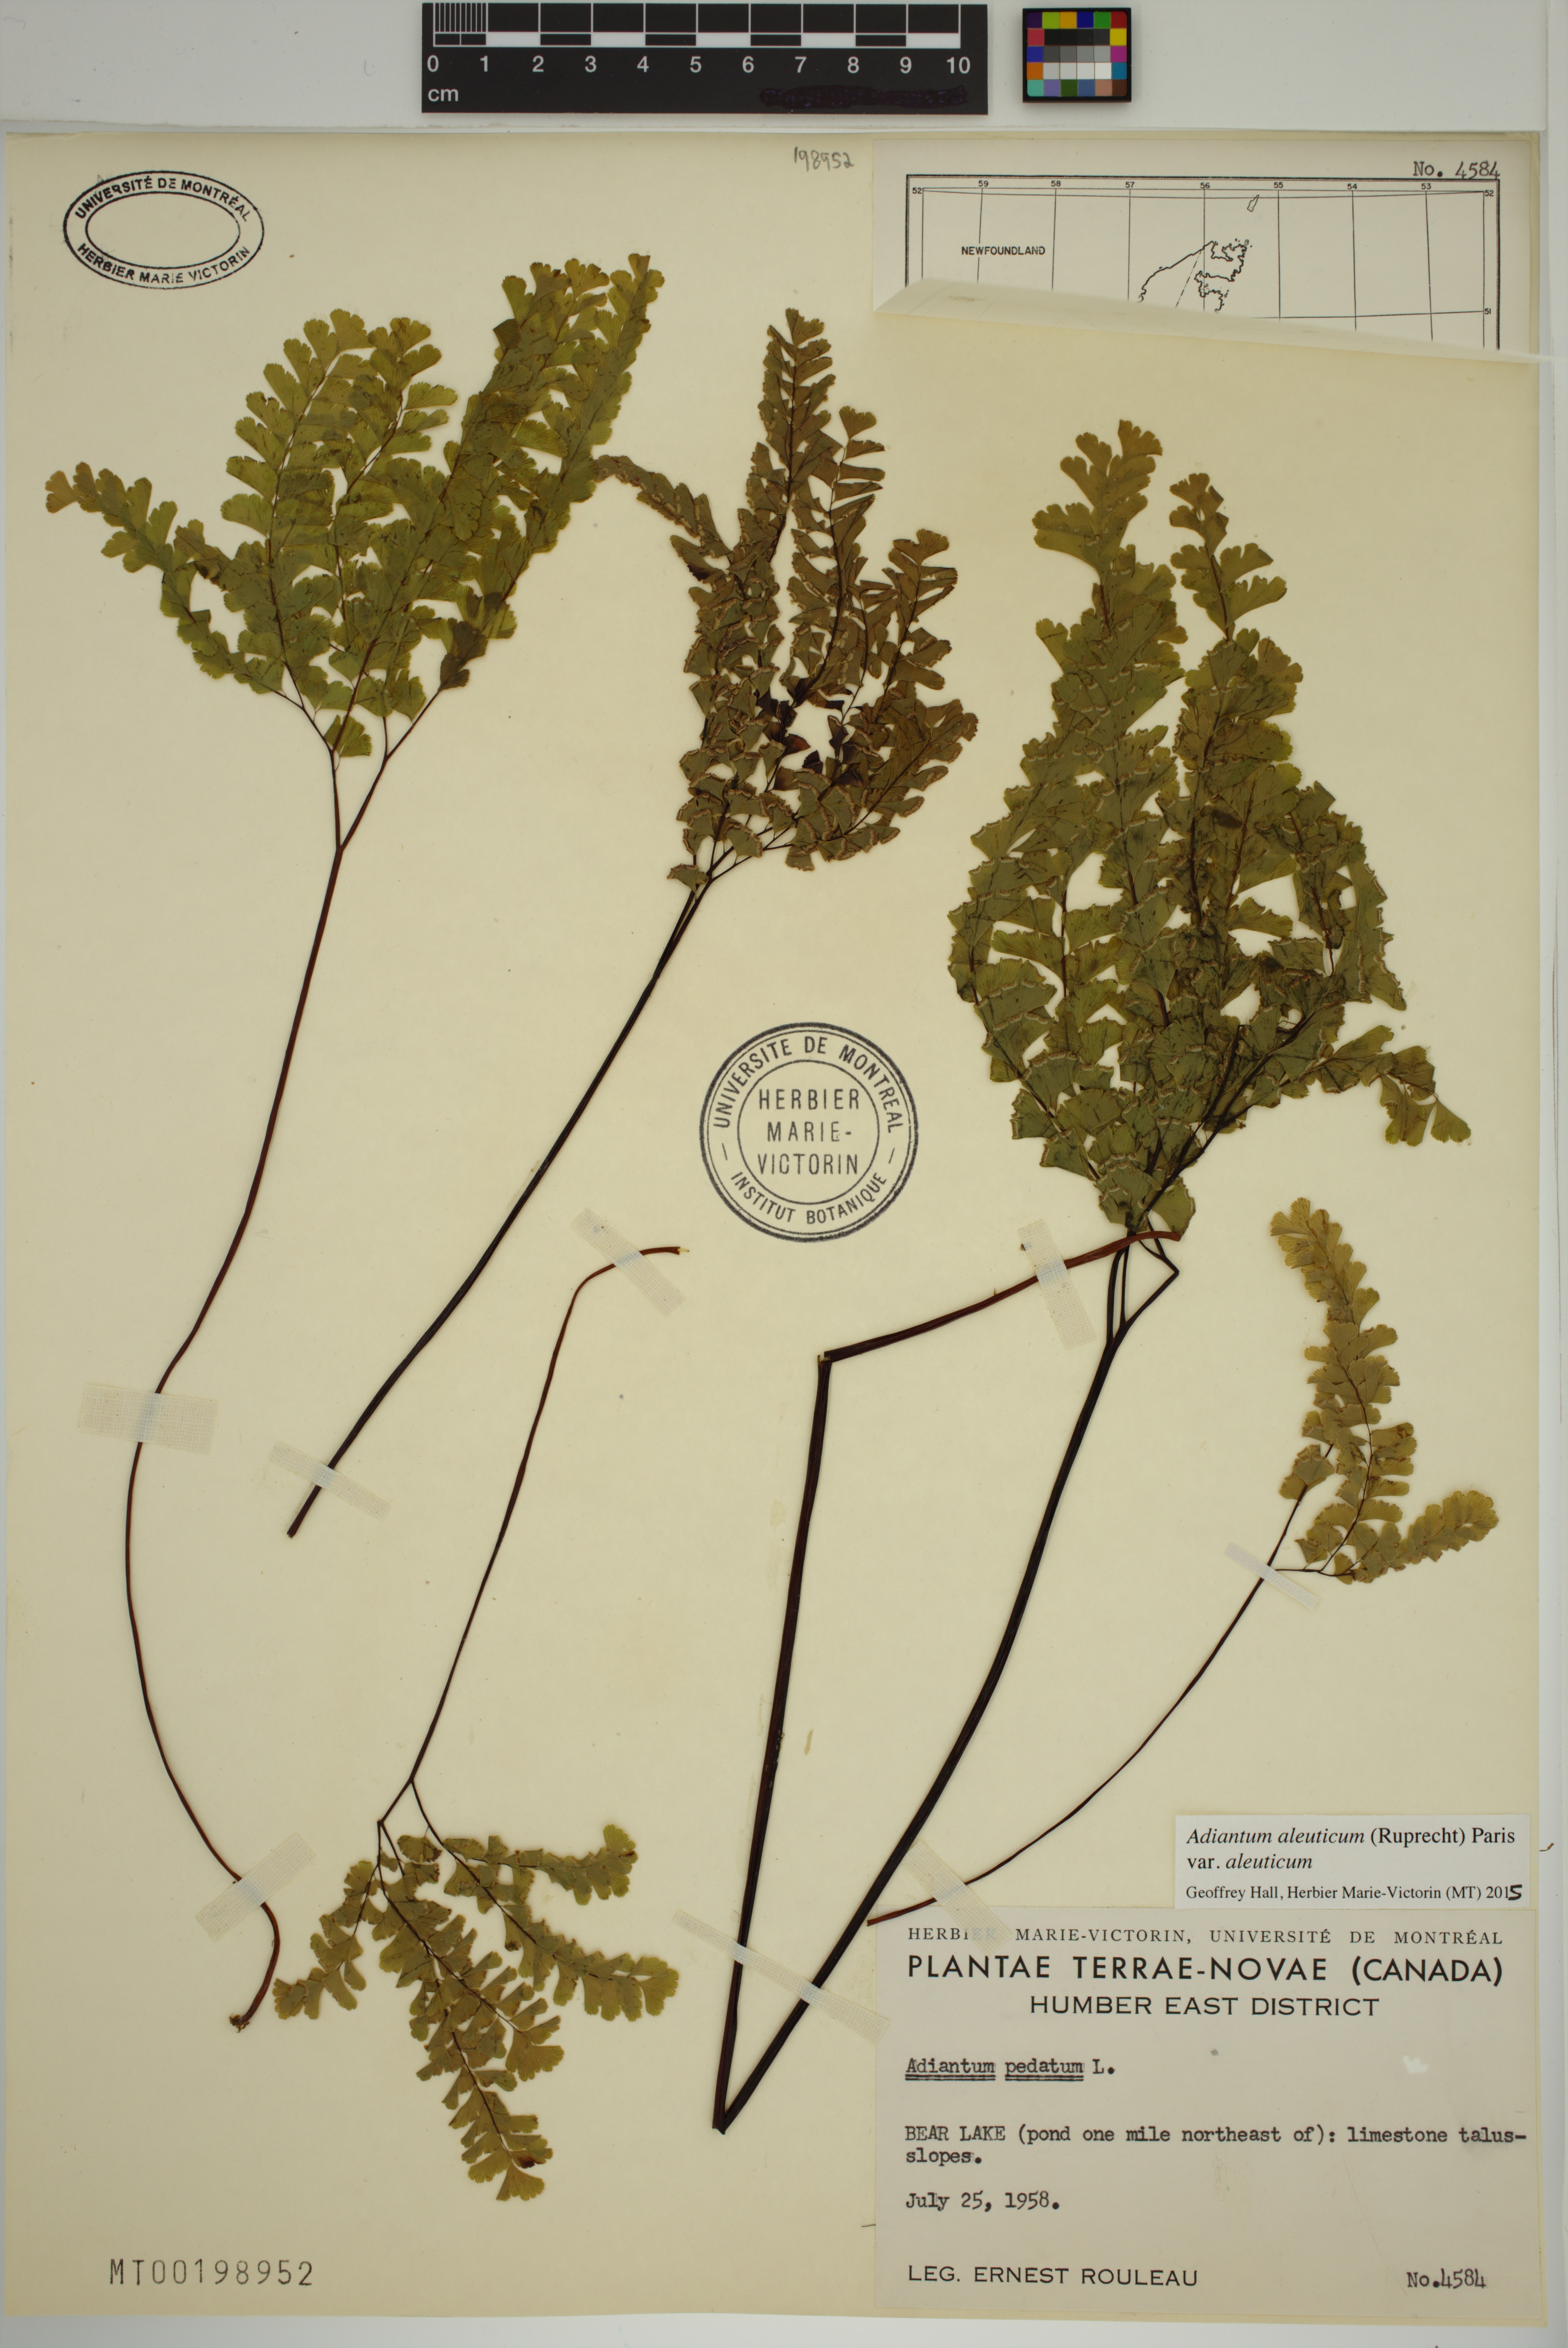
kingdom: Plantae
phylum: Tracheophyta
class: Polypodiopsida
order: Polypodiales
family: Pteridaceae
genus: Adiantum
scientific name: Adiantum aleuticum
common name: Aleutian maidenhair fern
